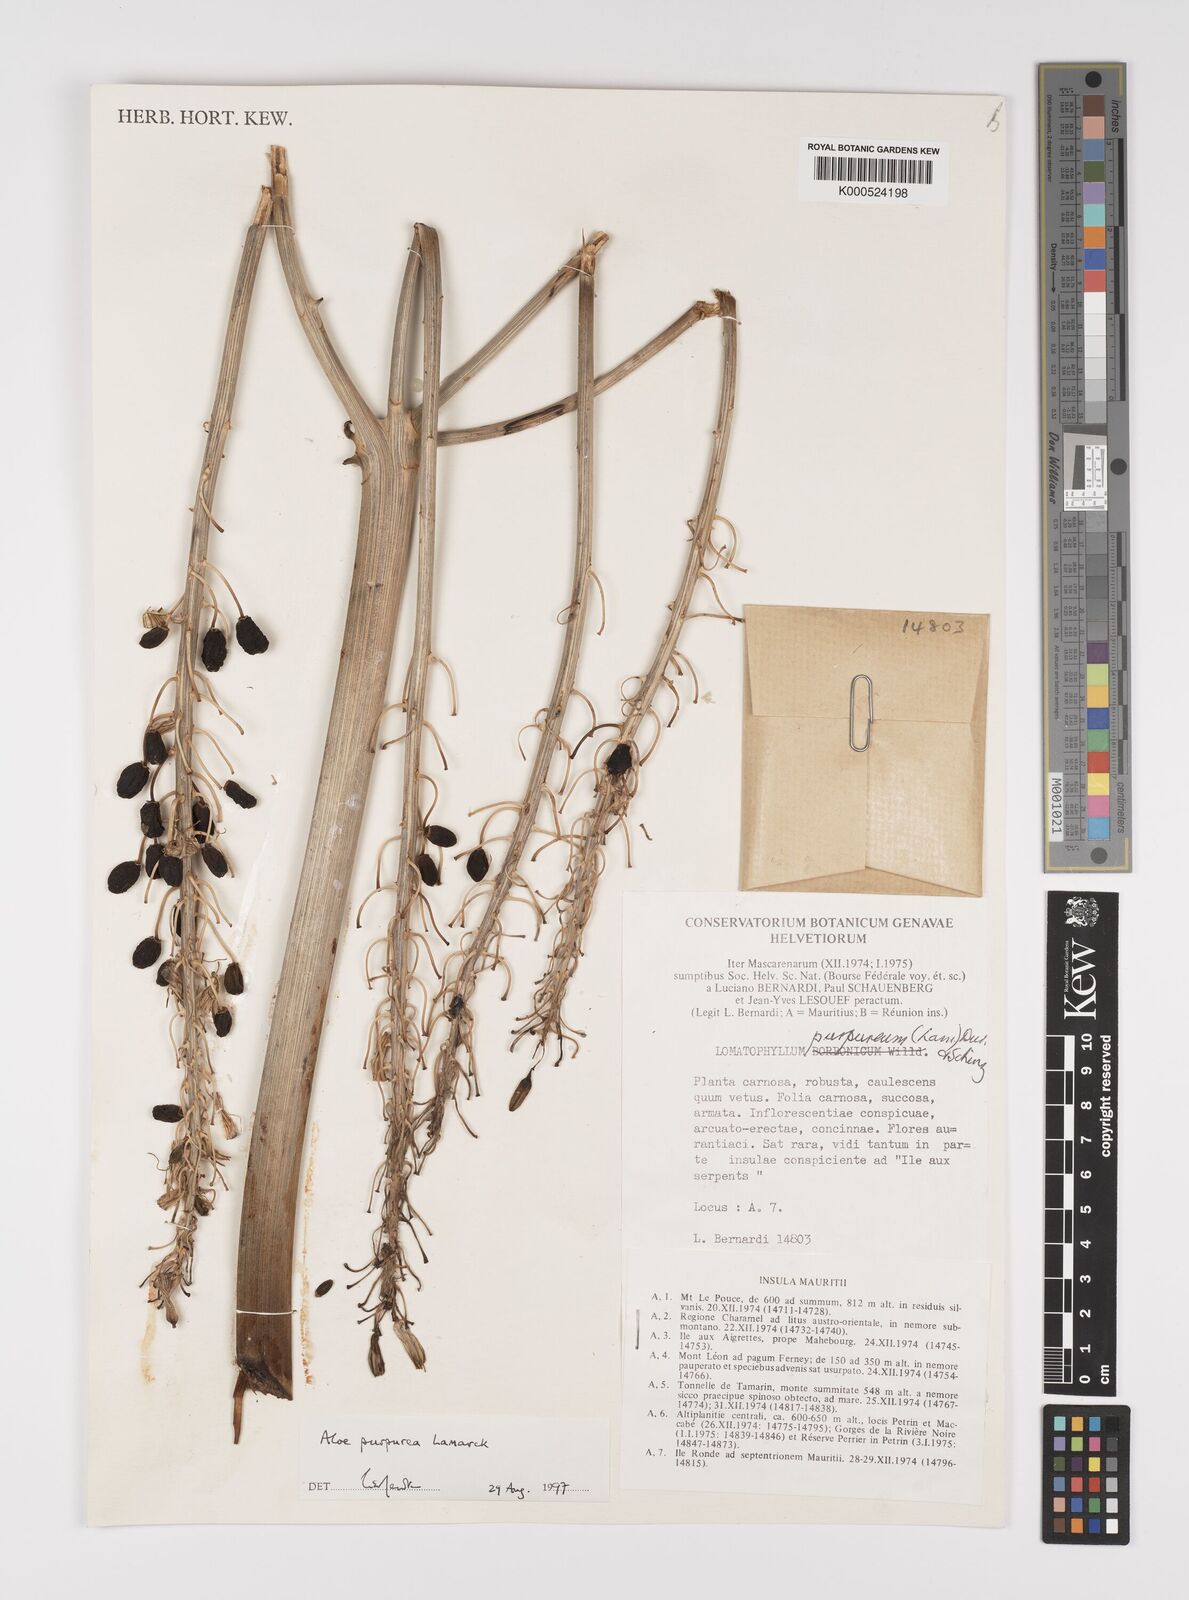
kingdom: Plantae
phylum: Tracheophyta
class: Liliopsida
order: Asparagales
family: Asphodelaceae
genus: Aloe
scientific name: Aloe purpurea
